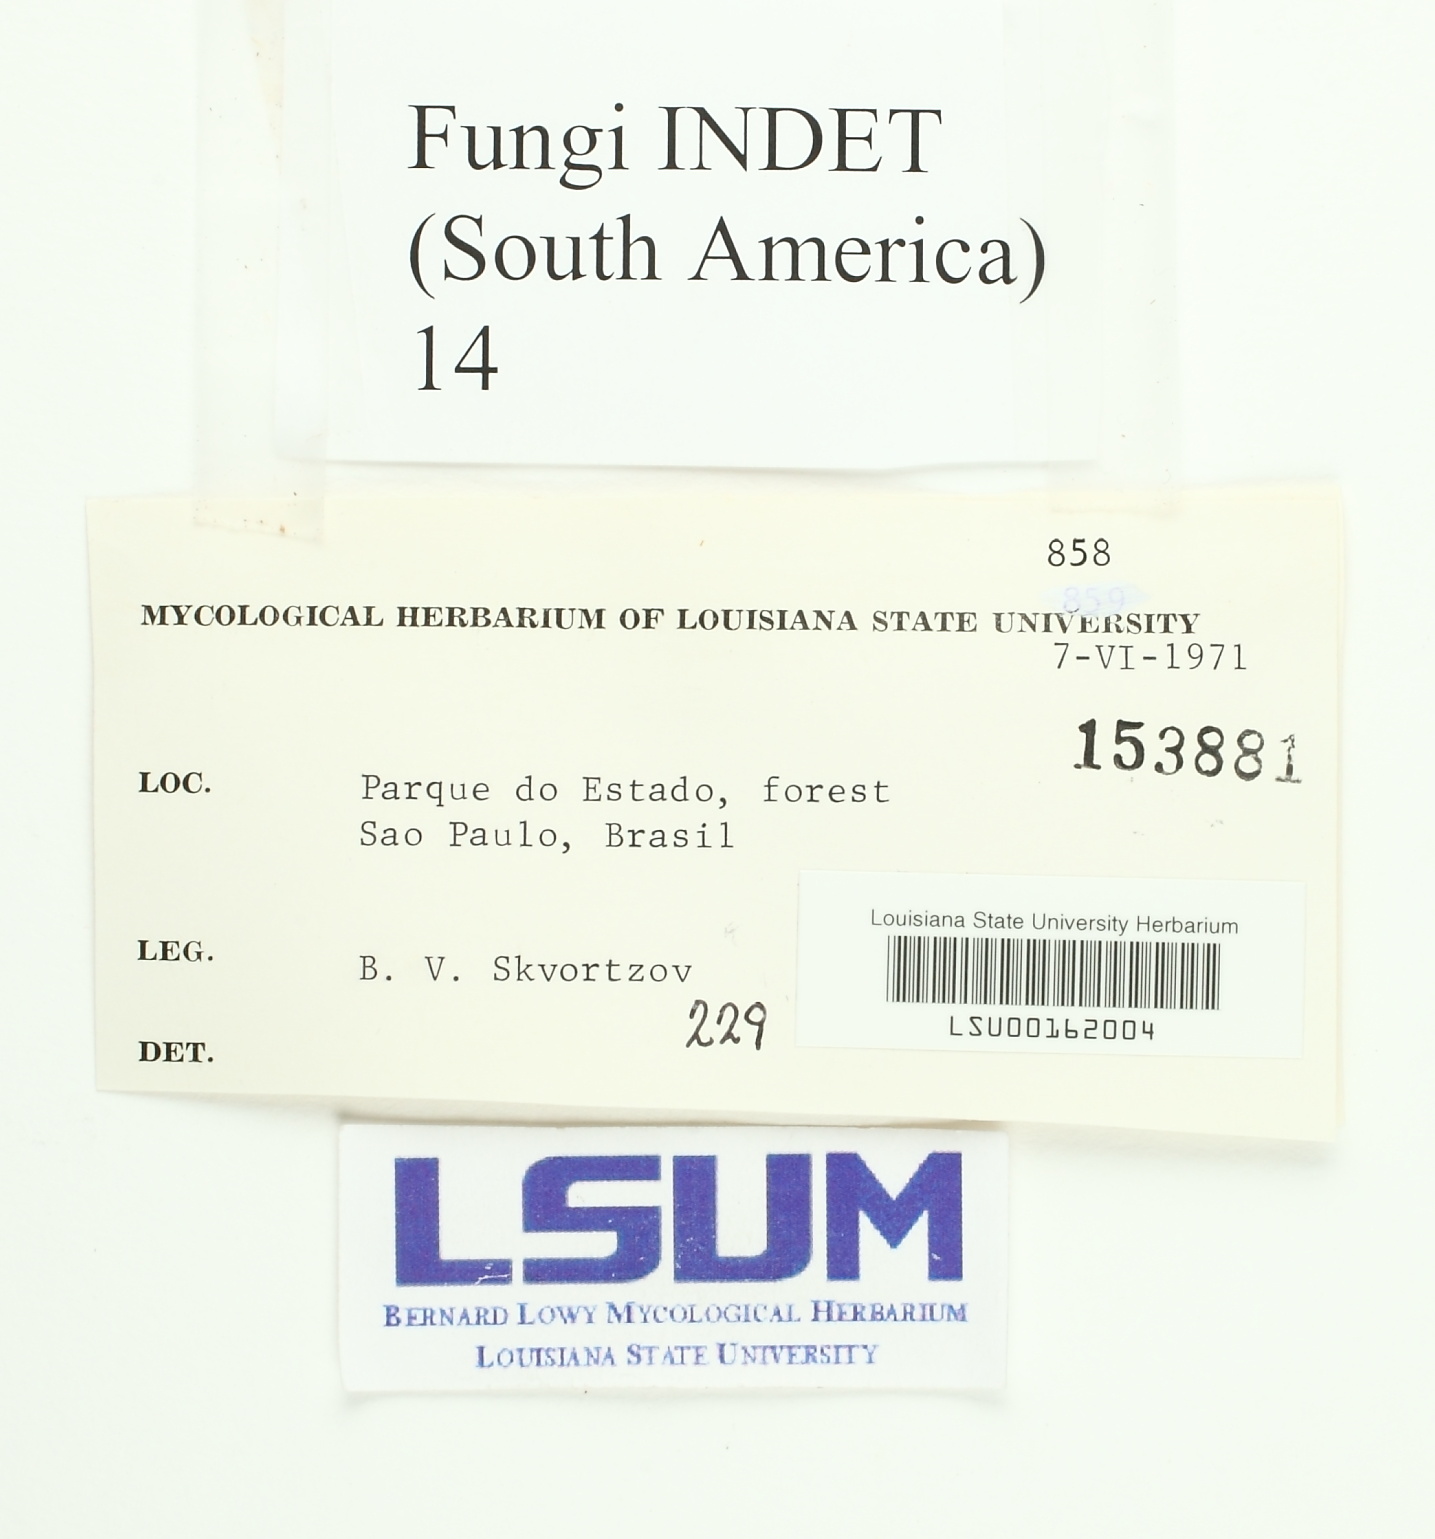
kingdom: Fungi
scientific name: Fungi
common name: Fungi
